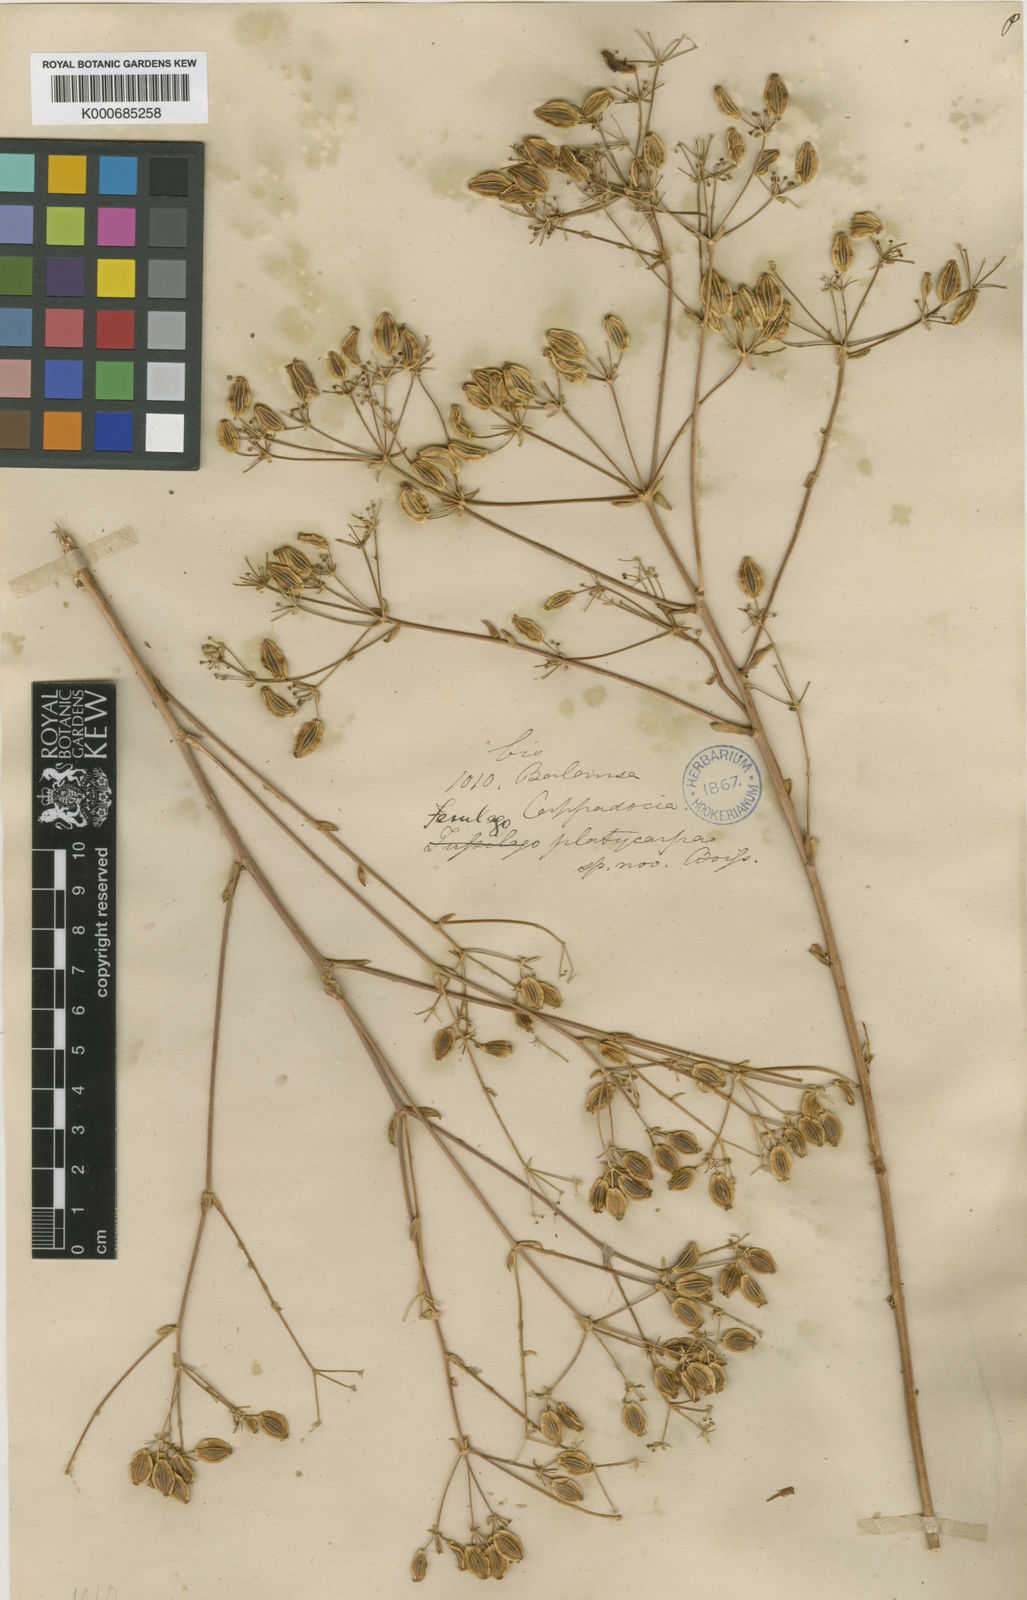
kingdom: Plantae
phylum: Tracheophyta
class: Magnoliopsida
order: Apiales
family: Apiaceae
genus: Ferulago
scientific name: Ferulago platycarpa
